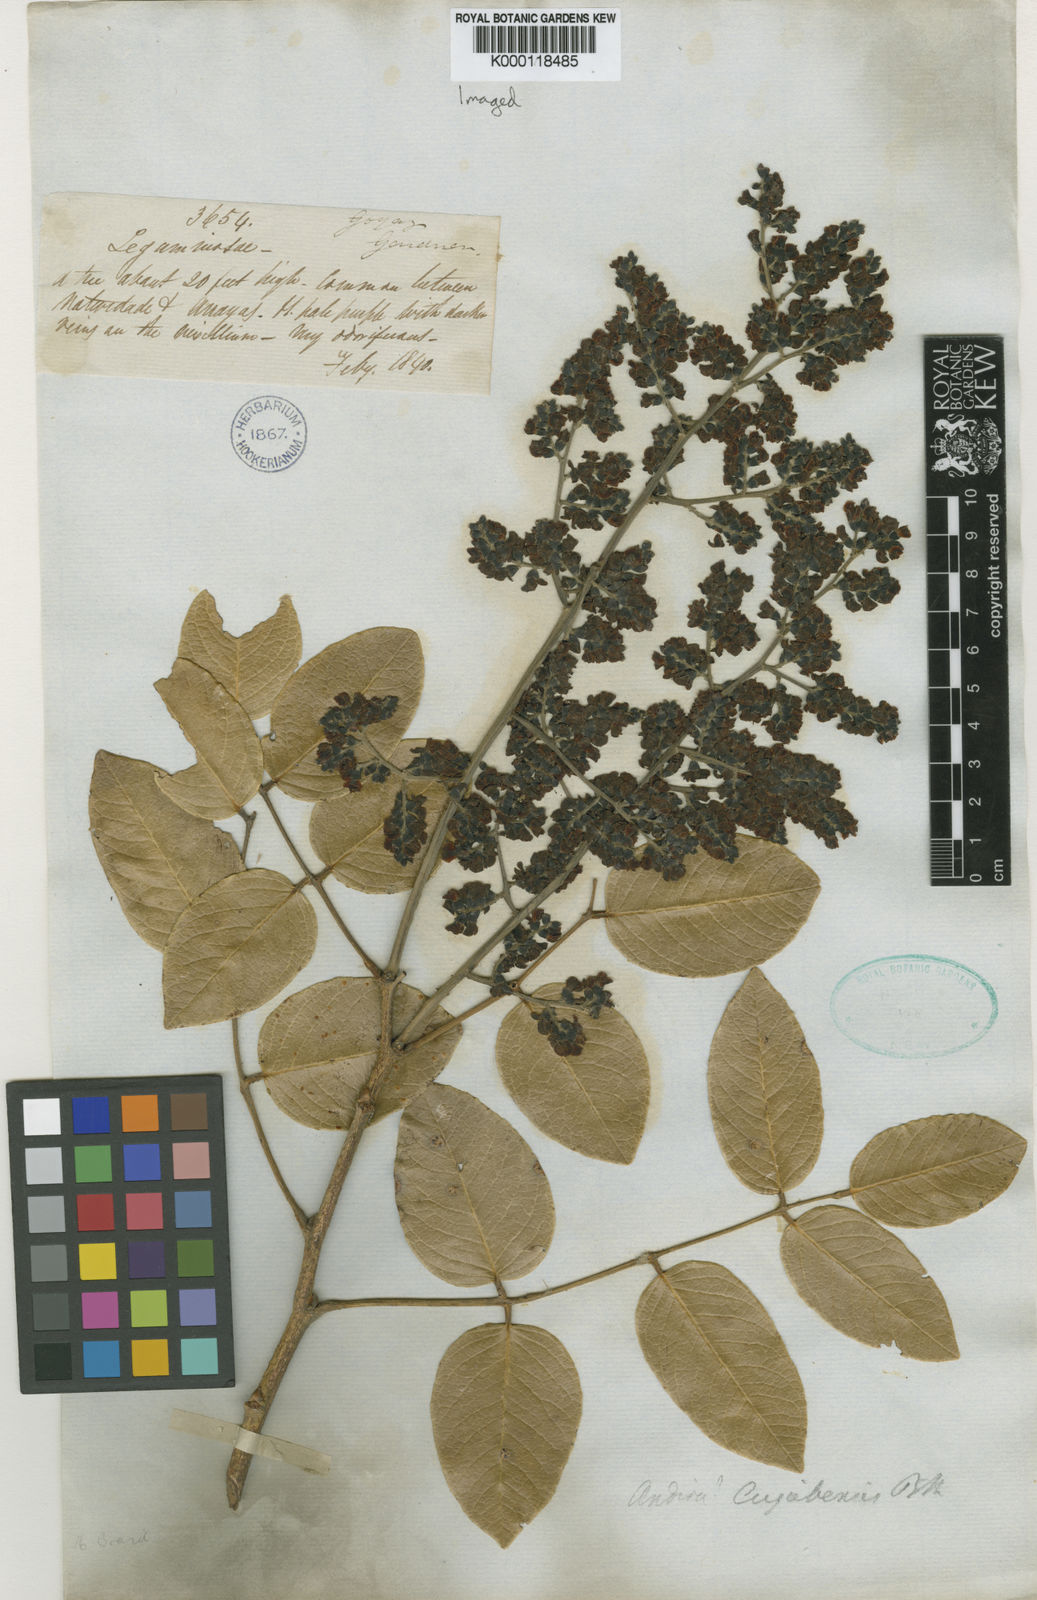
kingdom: Plantae
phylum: Tracheophyta
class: Magnoliopsida
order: Fabales
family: Fabaceae
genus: Andira
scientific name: Andira cujabensis
